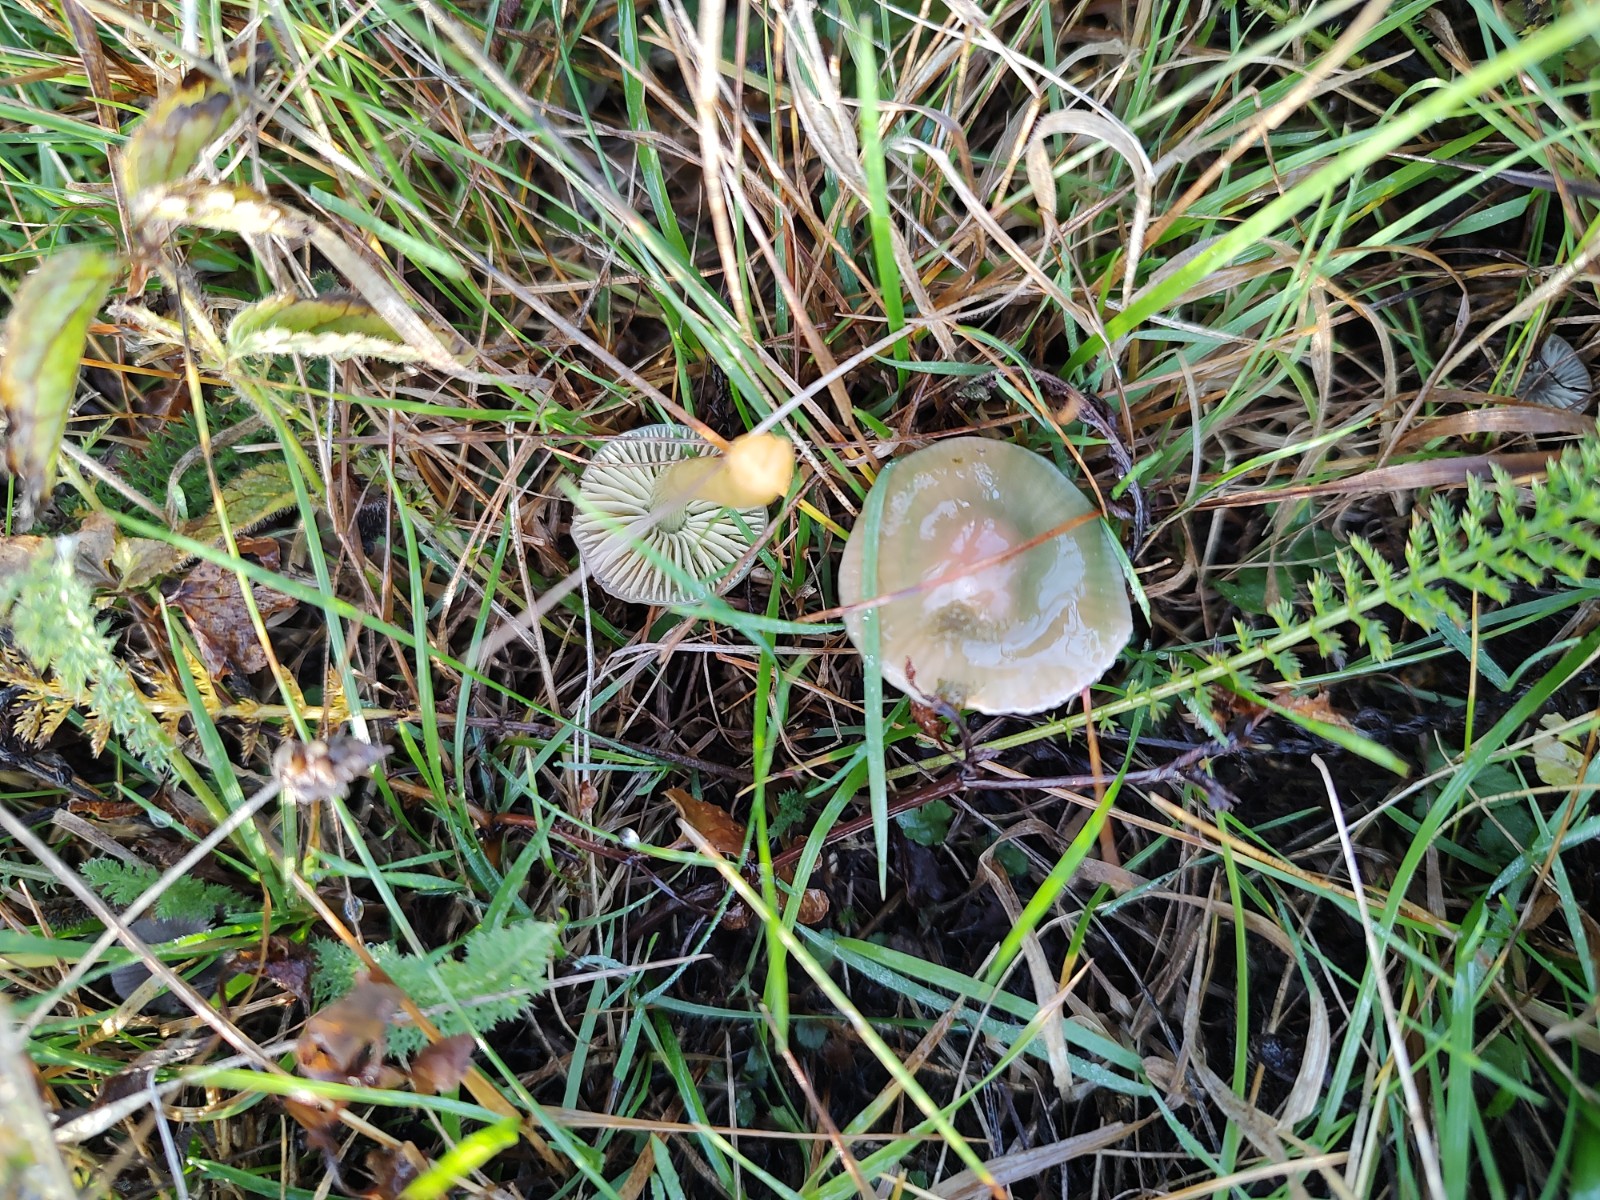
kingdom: Fungi
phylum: Basidiomycota
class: Agaricomycetes
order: Agaricales
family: Hygrophoraceae
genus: Gliophorus
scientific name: Gliophorus psittacinus
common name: papegøje-vokshat
